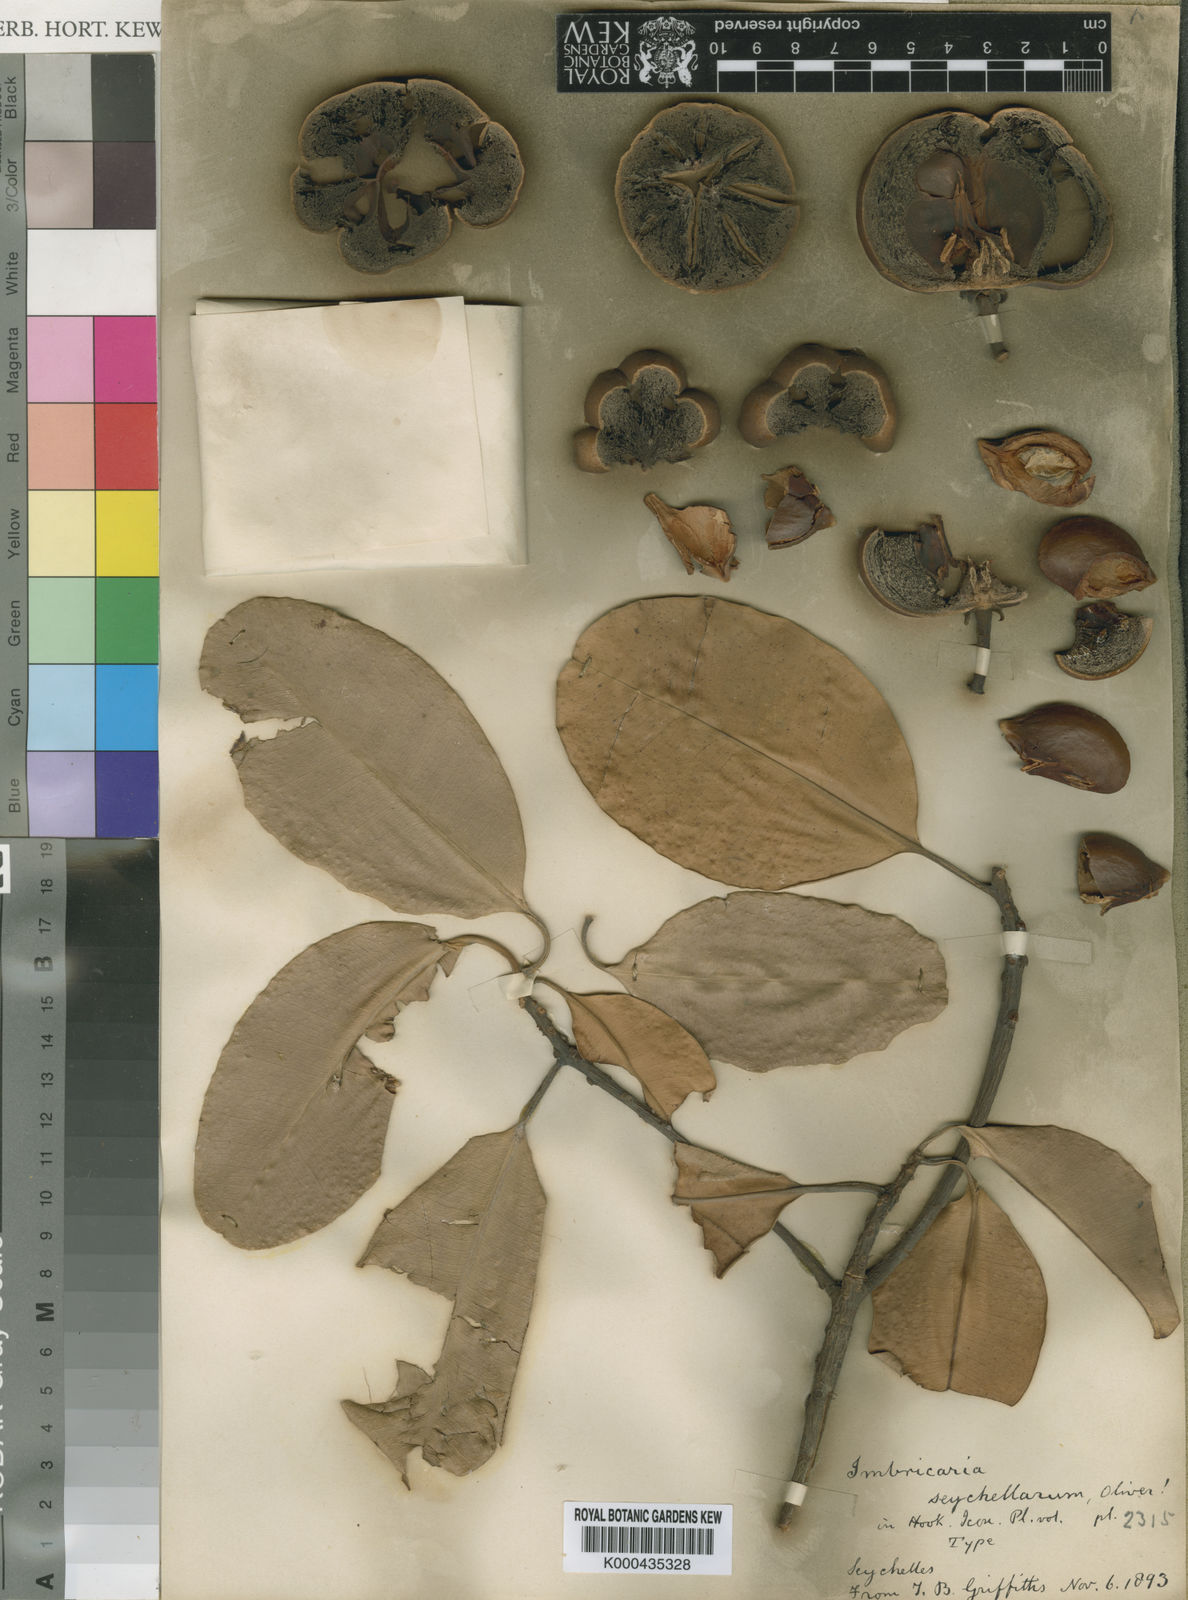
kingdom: Plantae
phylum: Tracheophyta
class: Magnoliopsida
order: Ericales
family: Sapotaceae
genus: Mimusops
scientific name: Mimusops sechellarum
